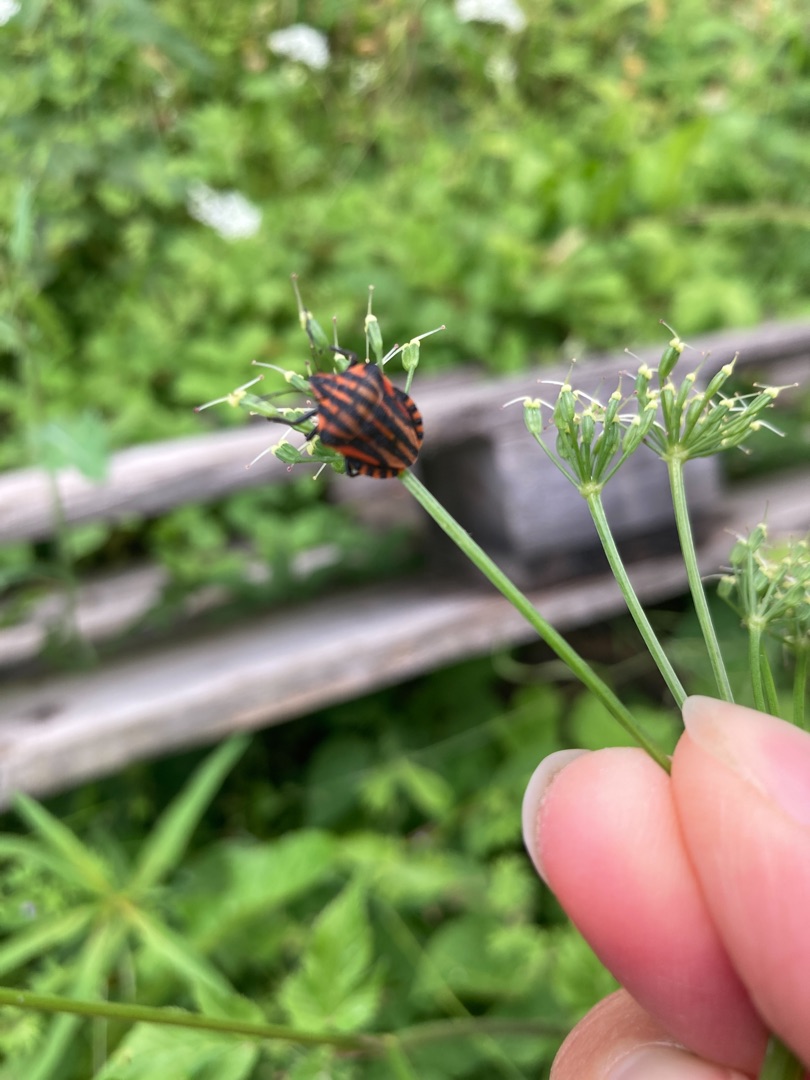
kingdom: Animalia
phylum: Arthropoda
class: Insecta
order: Hemiptera
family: Pentatomidae
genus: Graphosoma
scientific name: Graphosoma italicum
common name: Stribetæge
